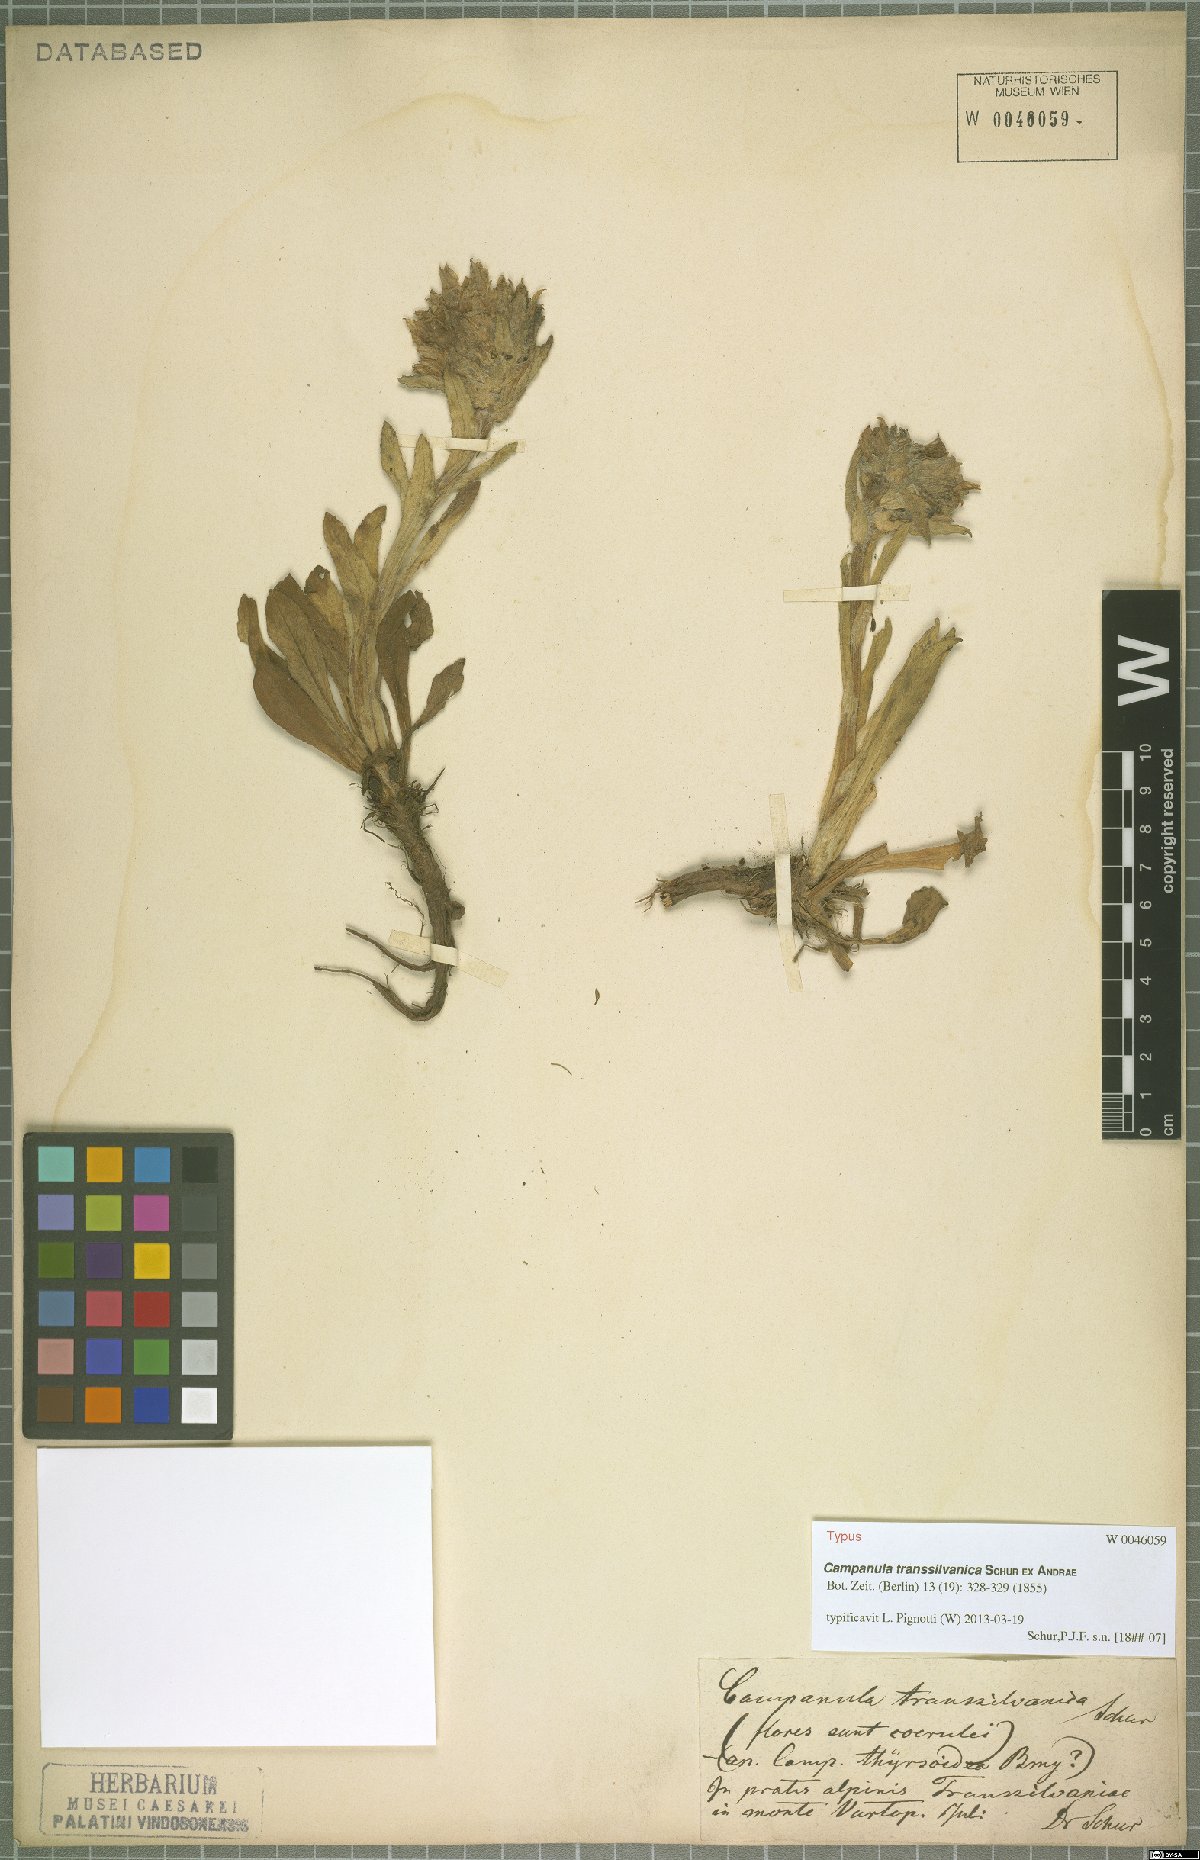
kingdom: Plantae
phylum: Tracheophyta
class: Magnoliopsida
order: Asterales
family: Campanulaceae
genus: Campanula
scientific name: Campanula transsilvanica
